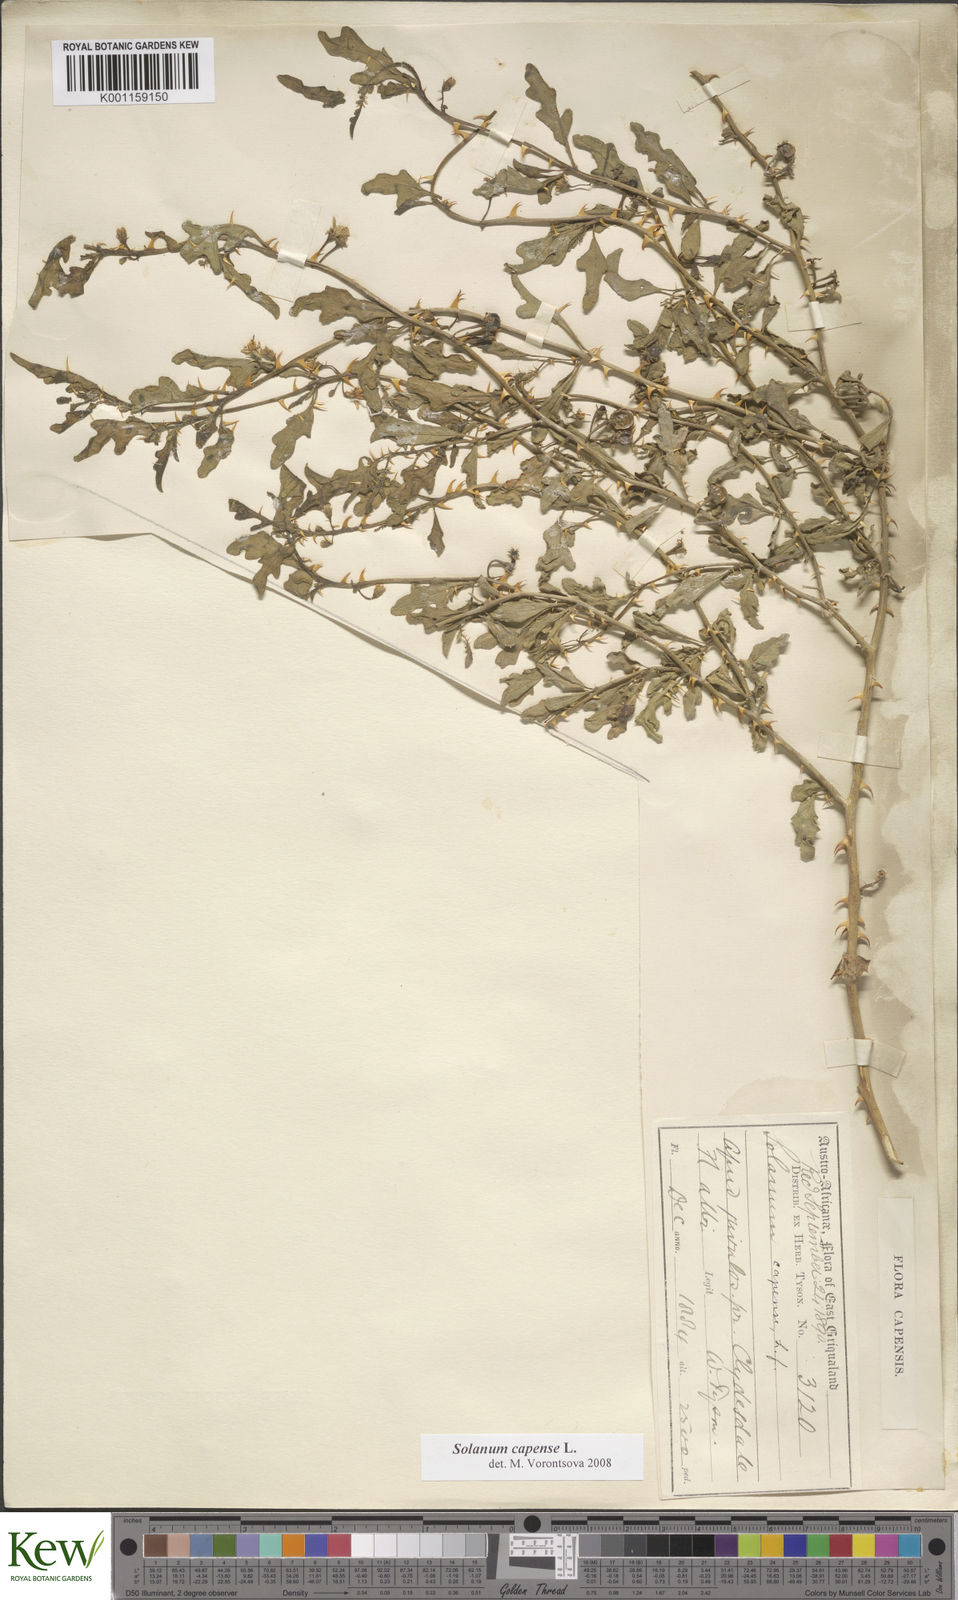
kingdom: Plantae
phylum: Tracheophyta
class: Magnoliopsida
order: Solanales
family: Solanaceae
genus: Solanum
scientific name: Solanum capense
